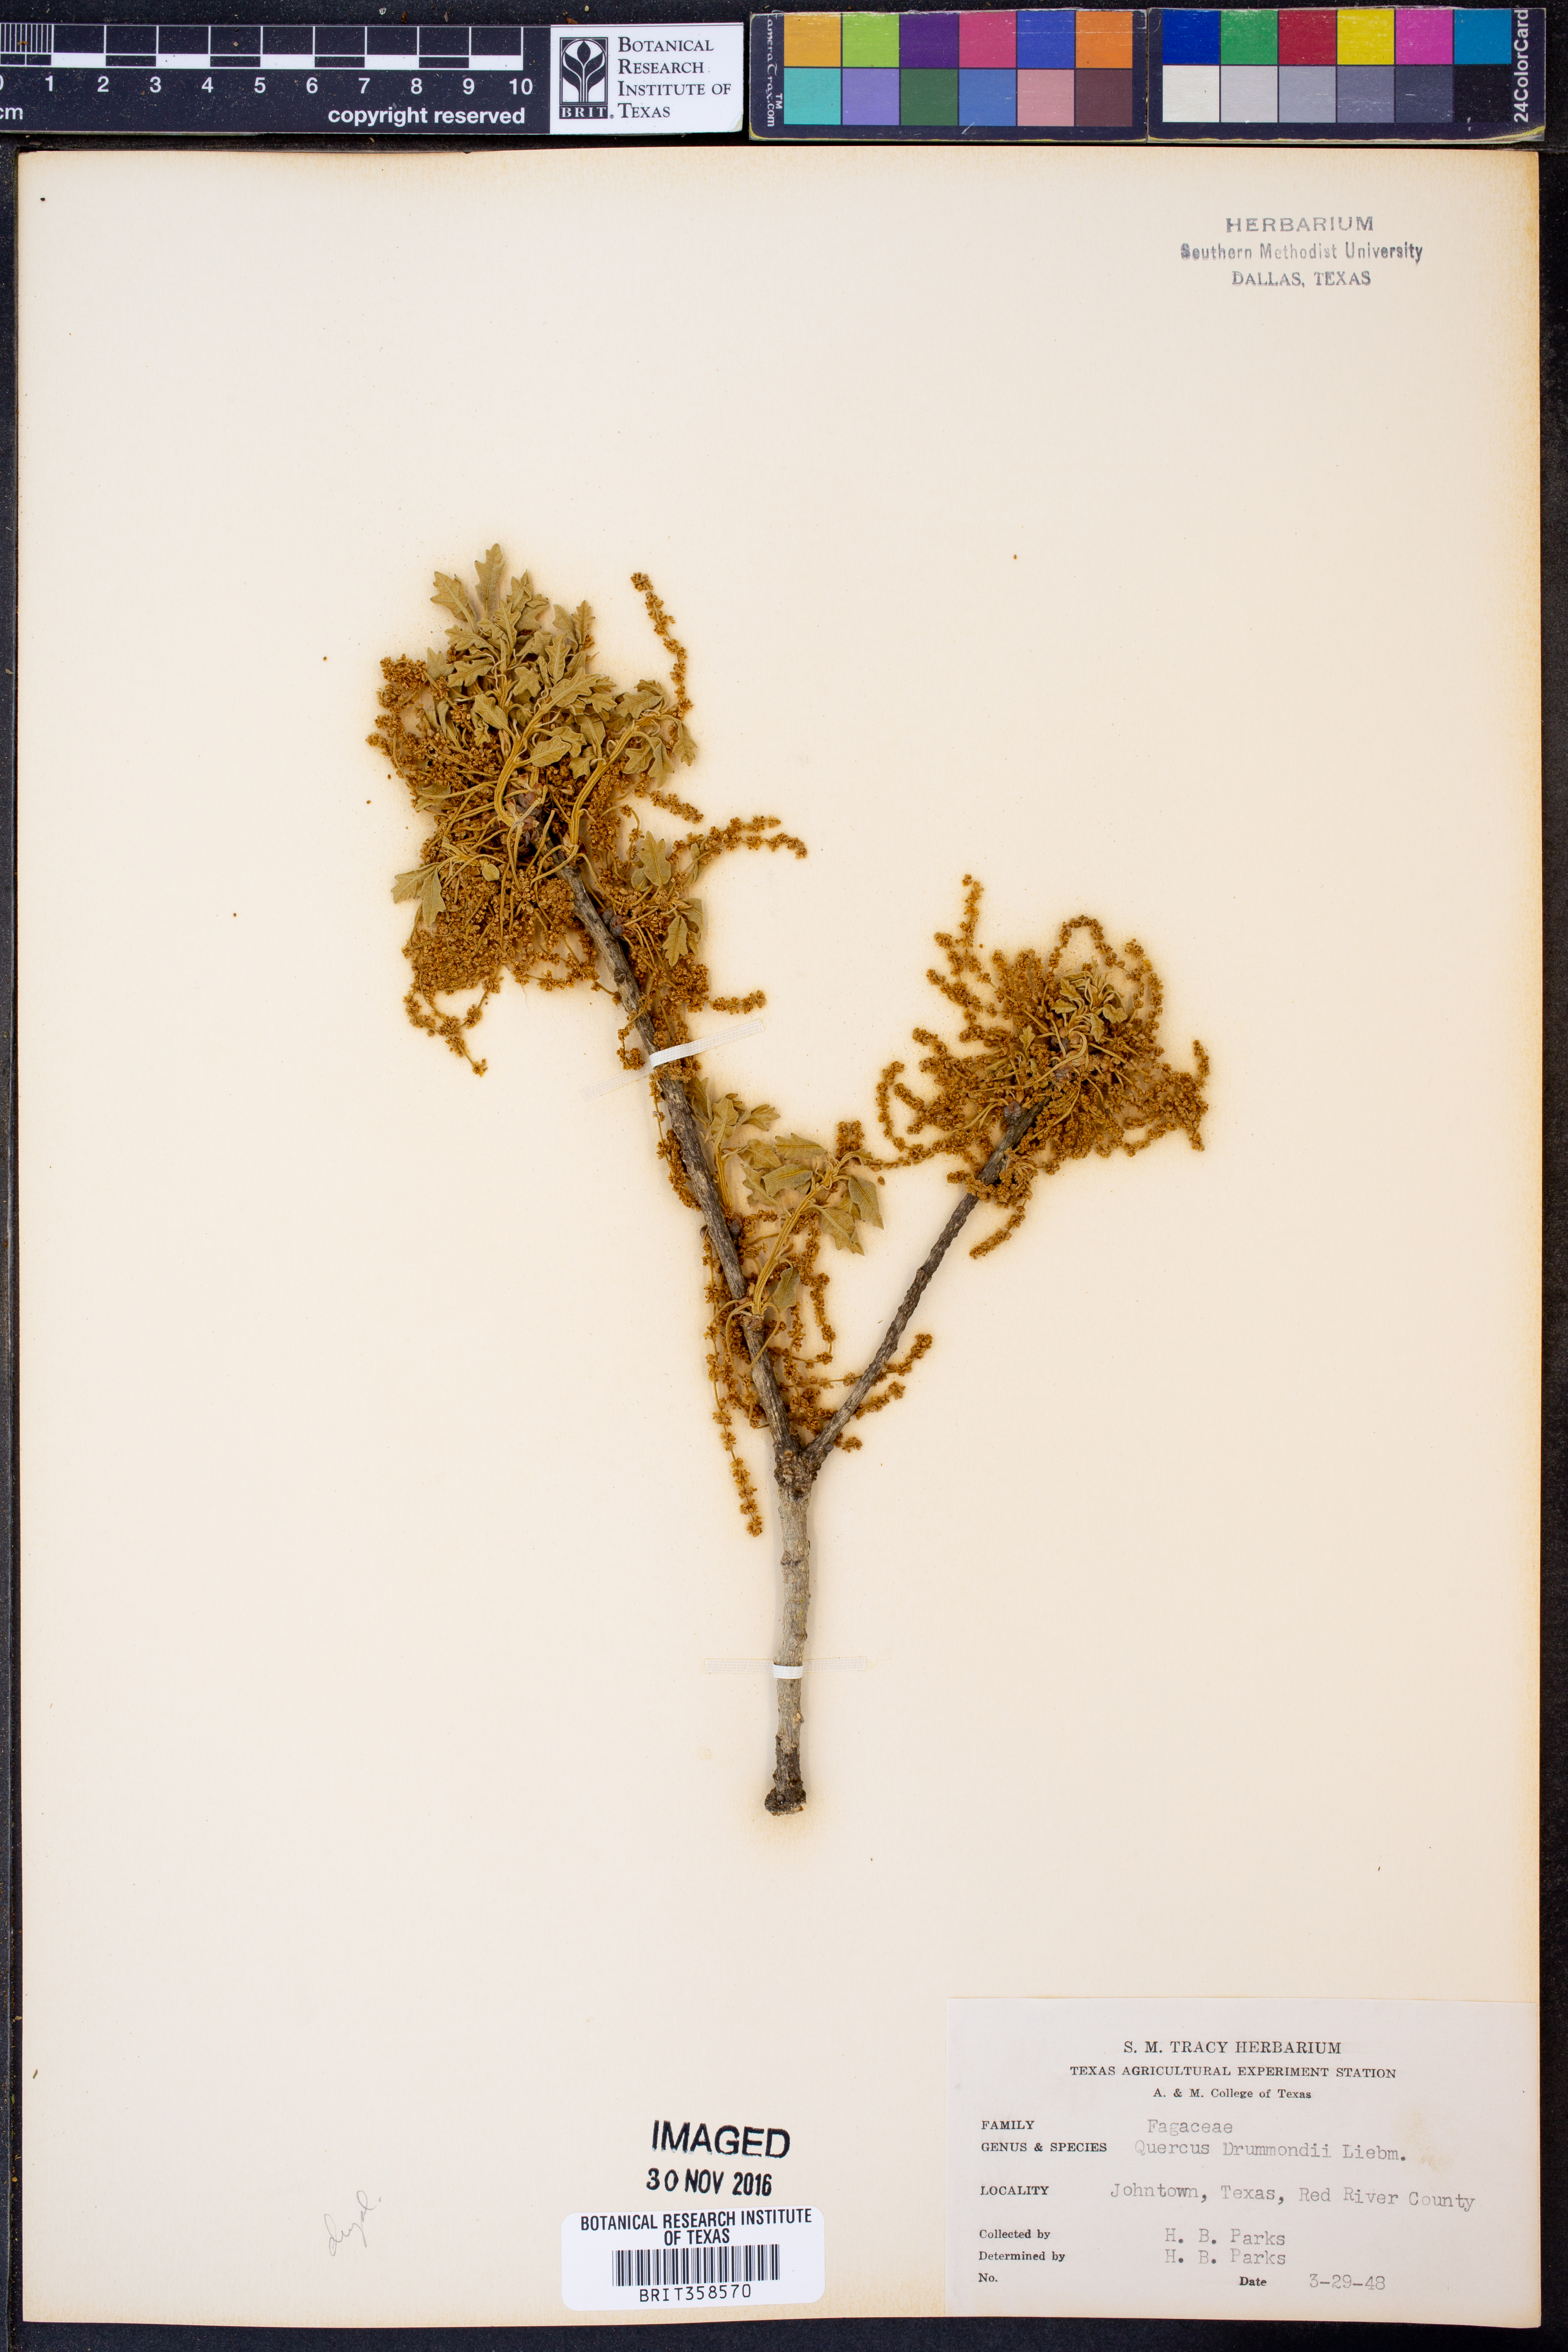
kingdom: Plantae
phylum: Tracheophyta
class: Magnoliopsida
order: Fagales
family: Fagaceae
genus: Quercus
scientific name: Quercus drummondii
